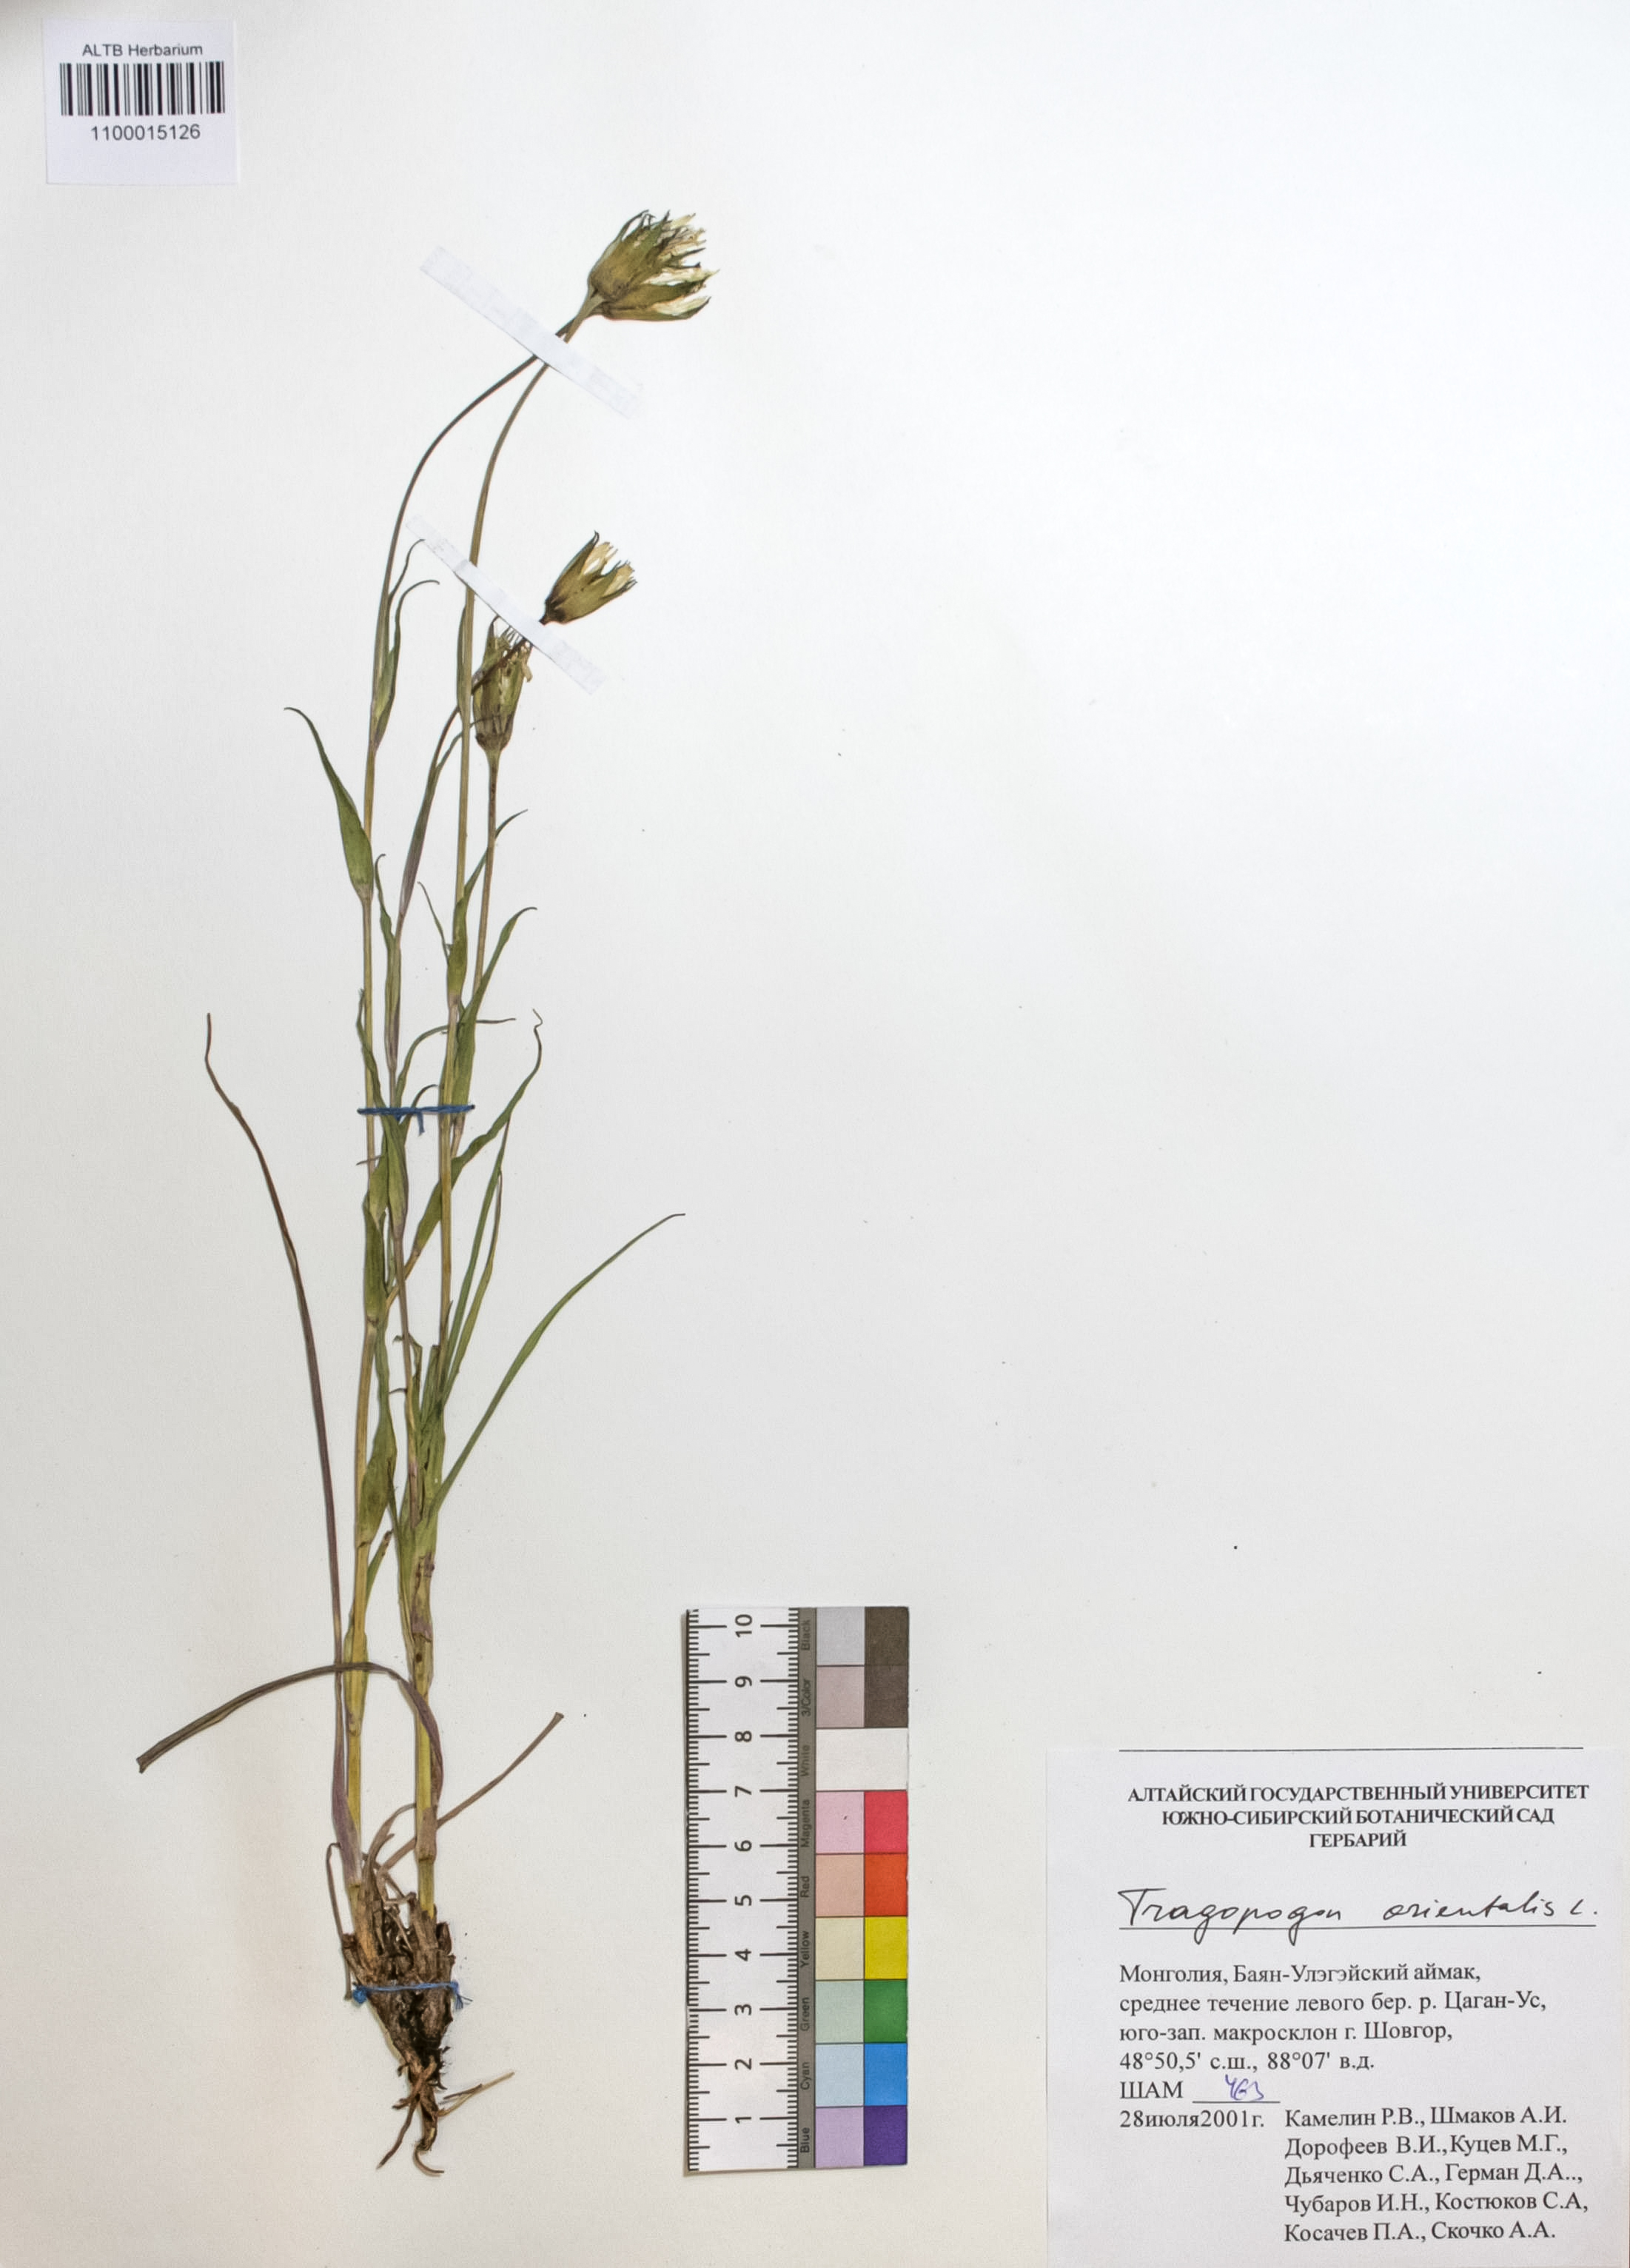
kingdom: Plantae
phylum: Tracheophyta
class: Magnoliopsida
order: Asterales
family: Asteraceae
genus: Tragopogon
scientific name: Tragopogon orientalis
